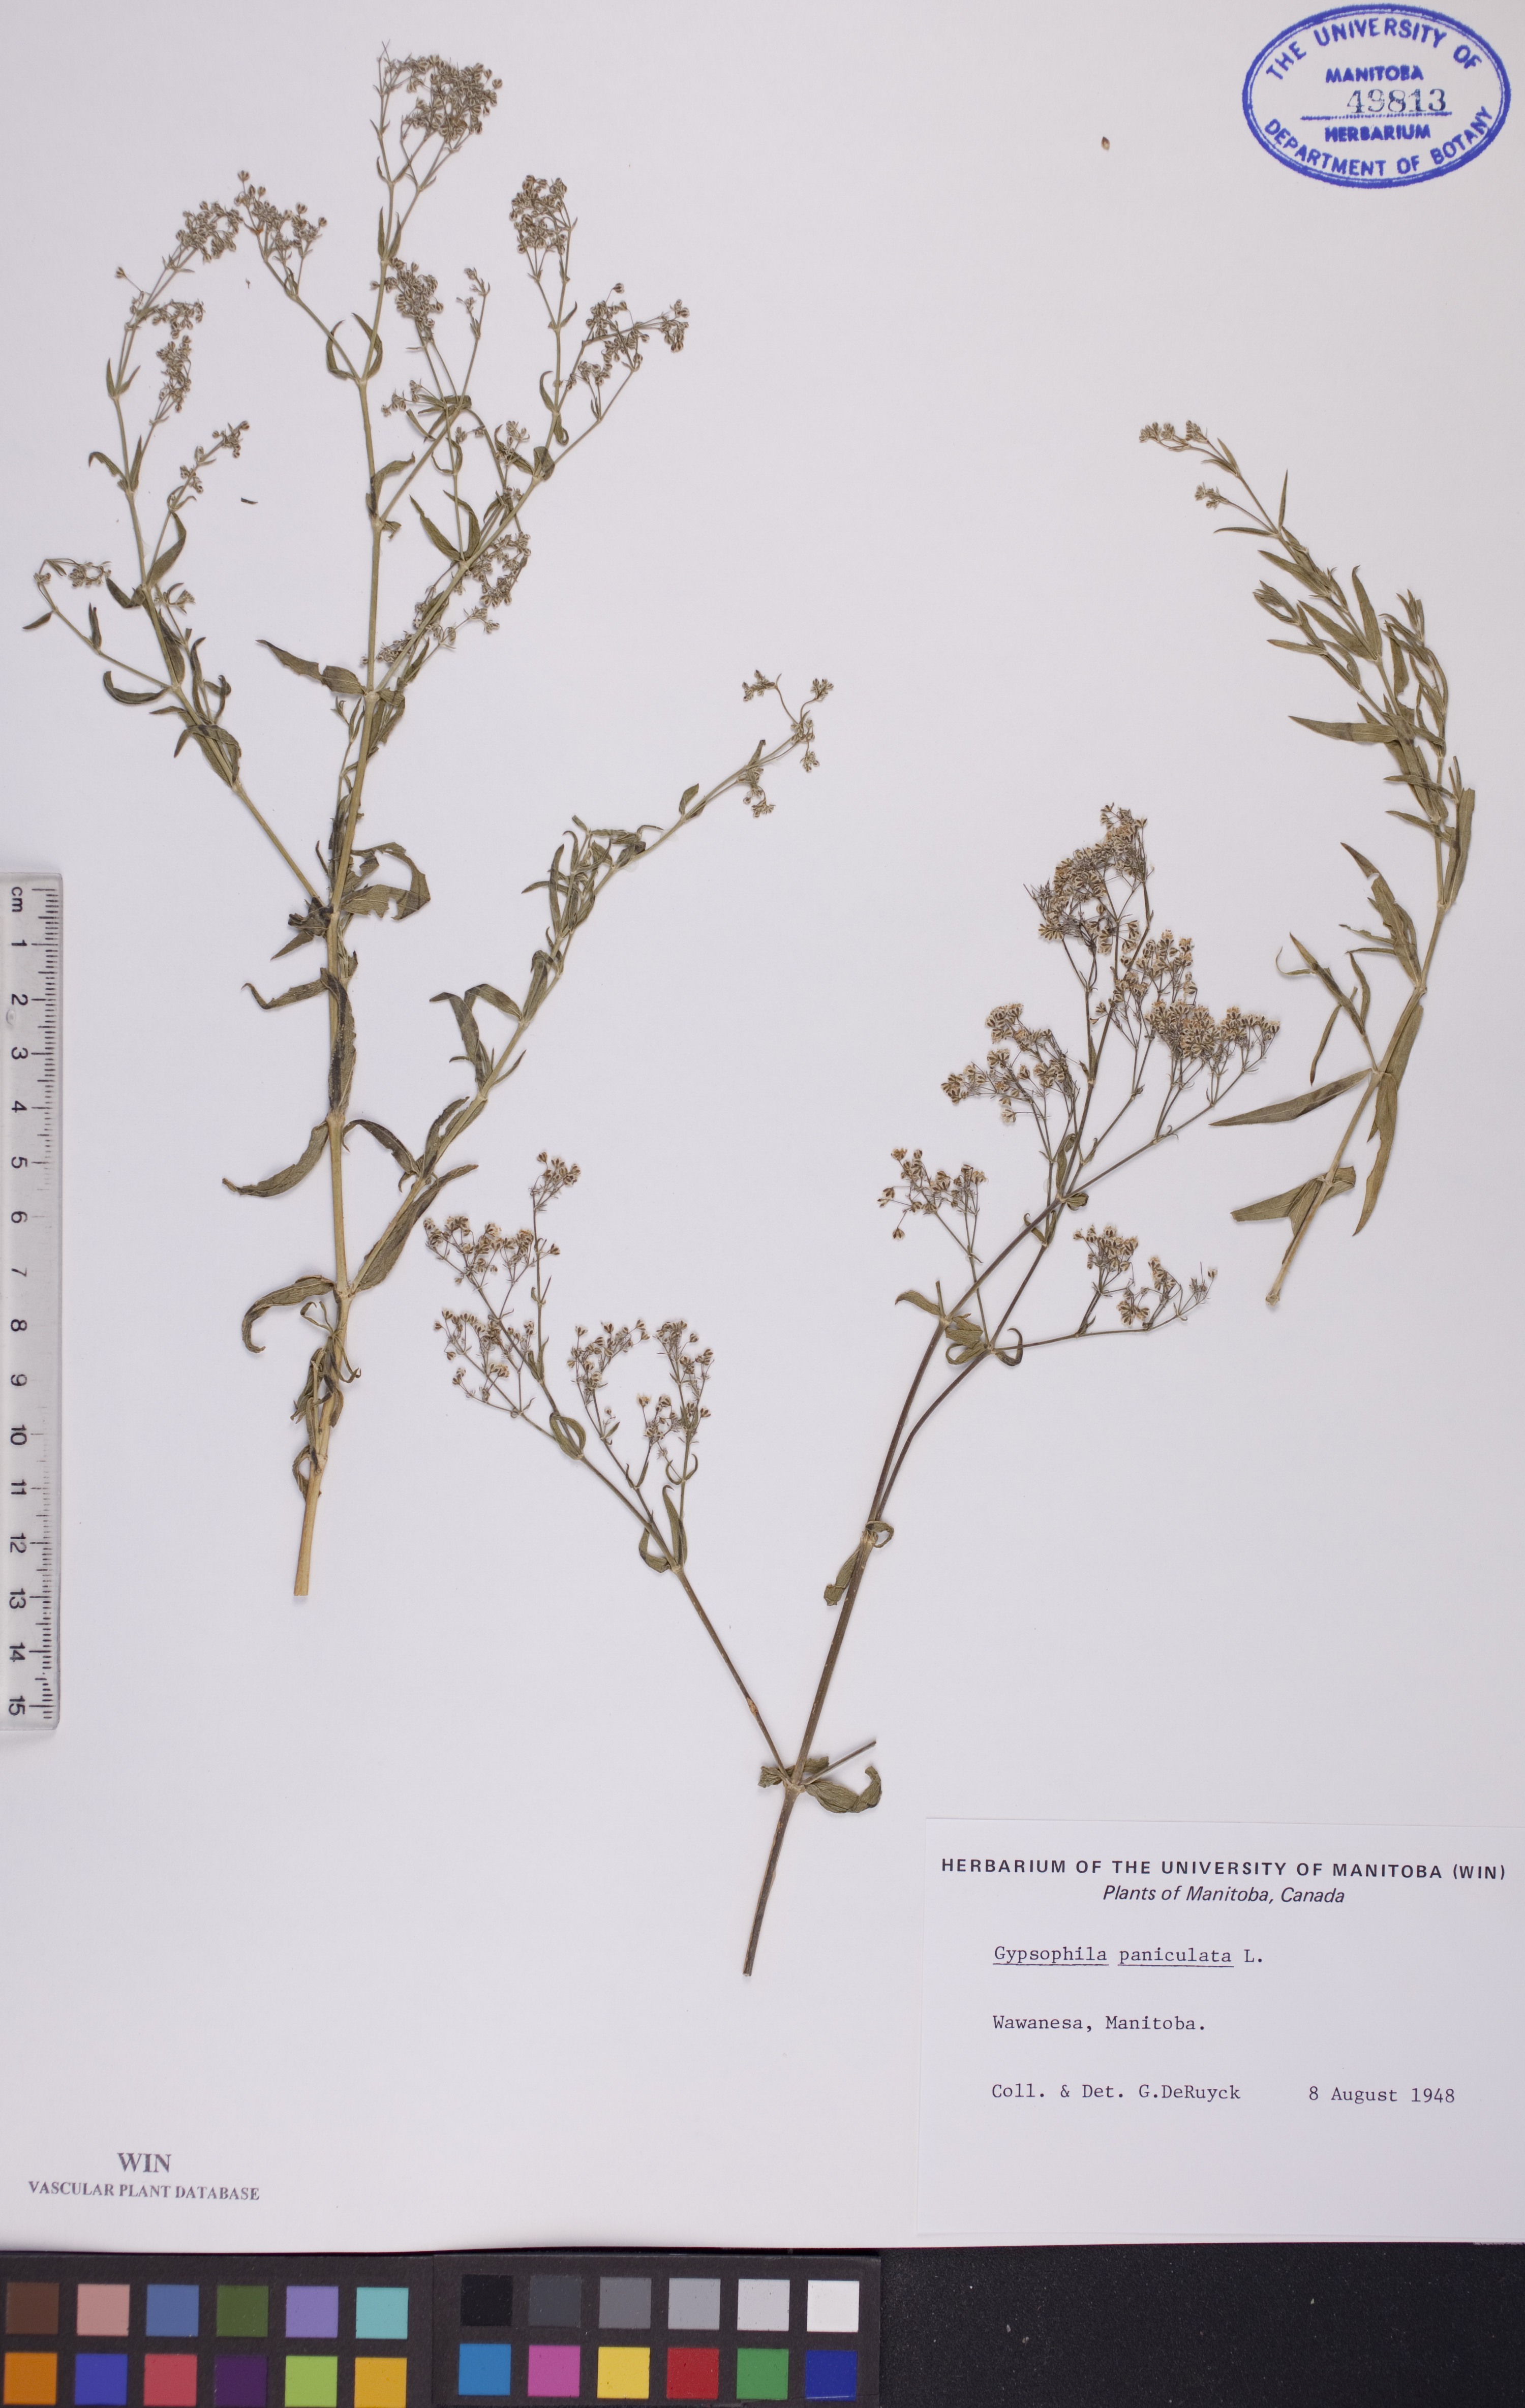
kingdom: Plantae
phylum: Tracheophyta
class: Magnoliopsida
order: Caryophyllales
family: Caryophyllaceae
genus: Gypsophila
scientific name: Gypsophila paniculata
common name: Baby's-breath
